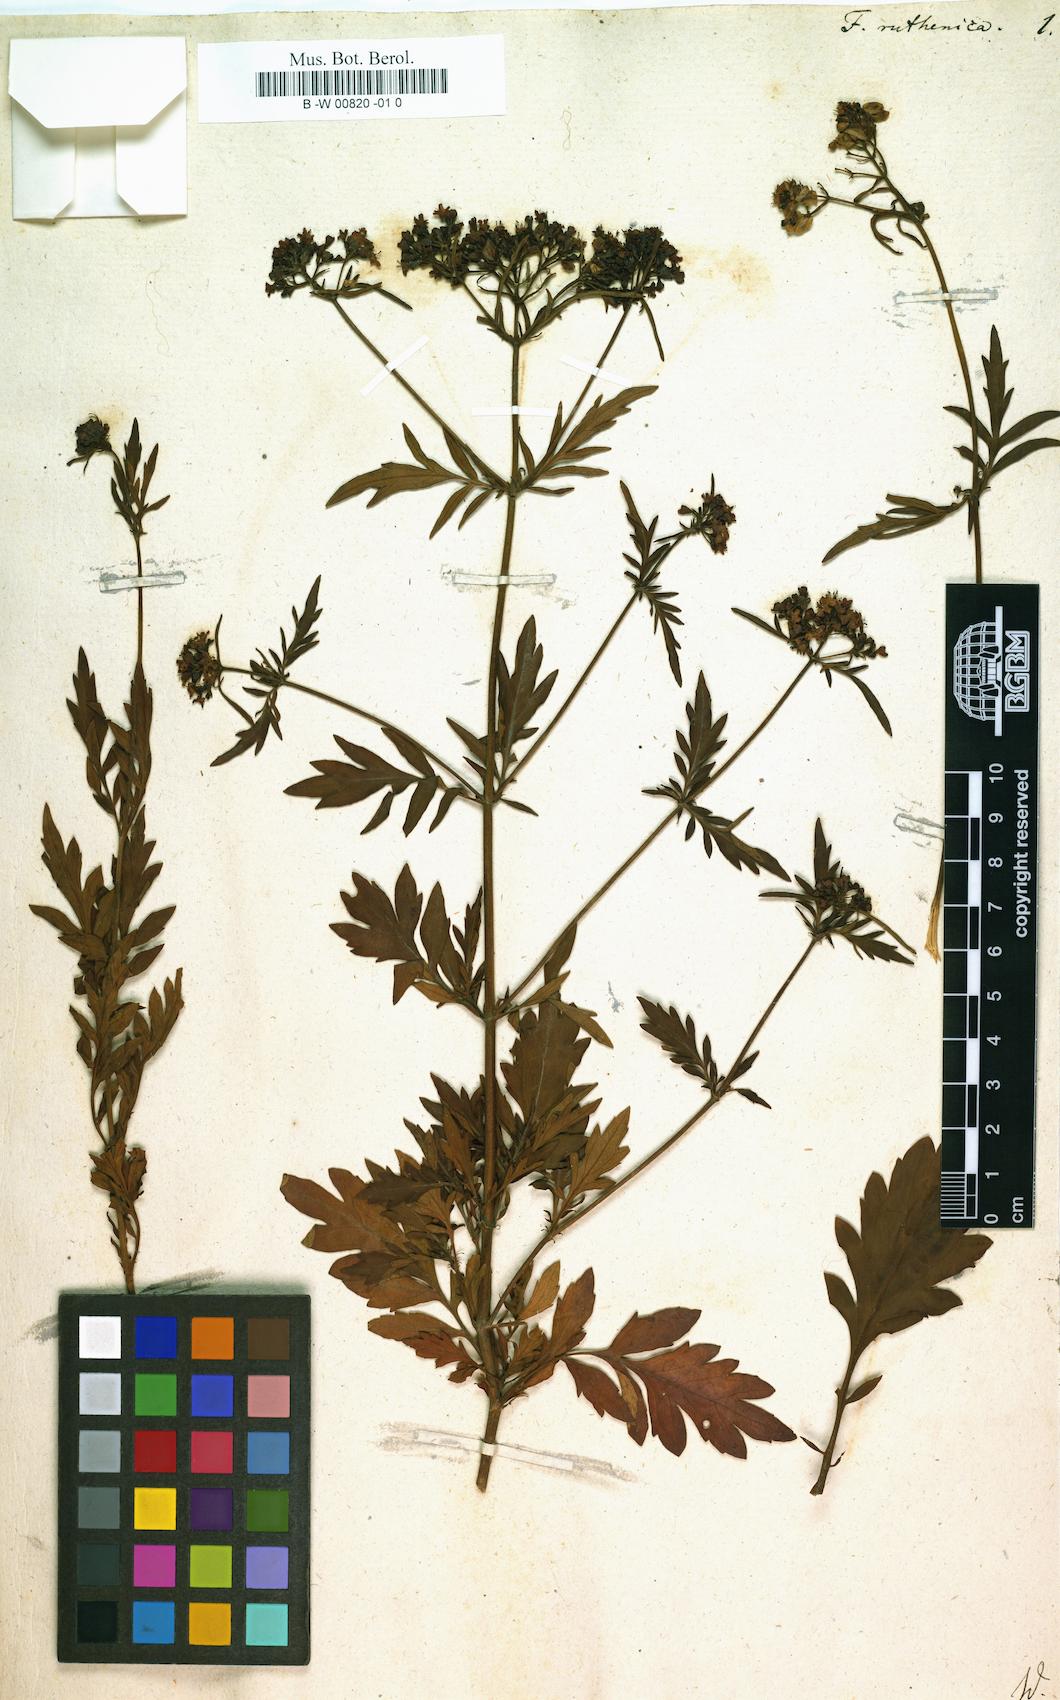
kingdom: Plantae
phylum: Tracheophyta
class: Magnoliopsida
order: Dipsacales
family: Caprifoliaceae
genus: Patrinia
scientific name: Patrinia intermedia
